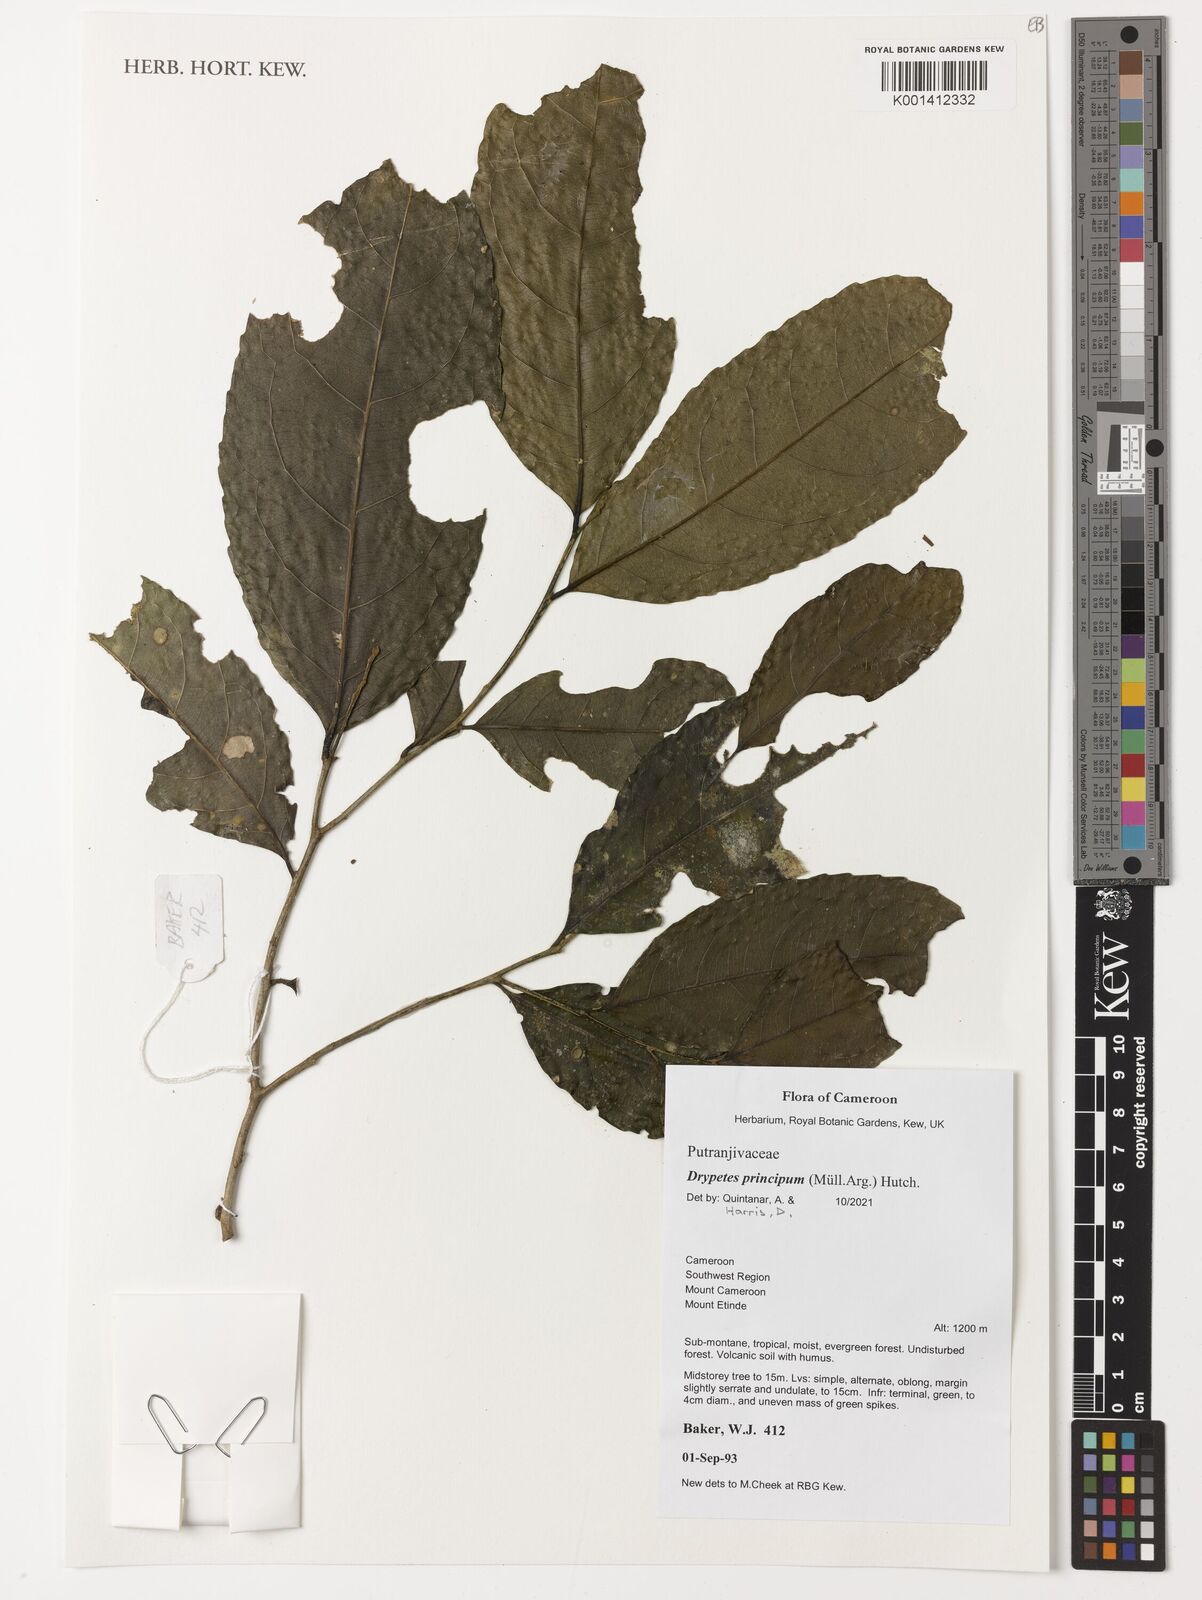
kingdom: Plantae
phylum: Tracheophyta
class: Magnoliopsida
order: Malpighiales
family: Putranjivaceae
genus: Drypetes
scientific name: Drypetes principum
